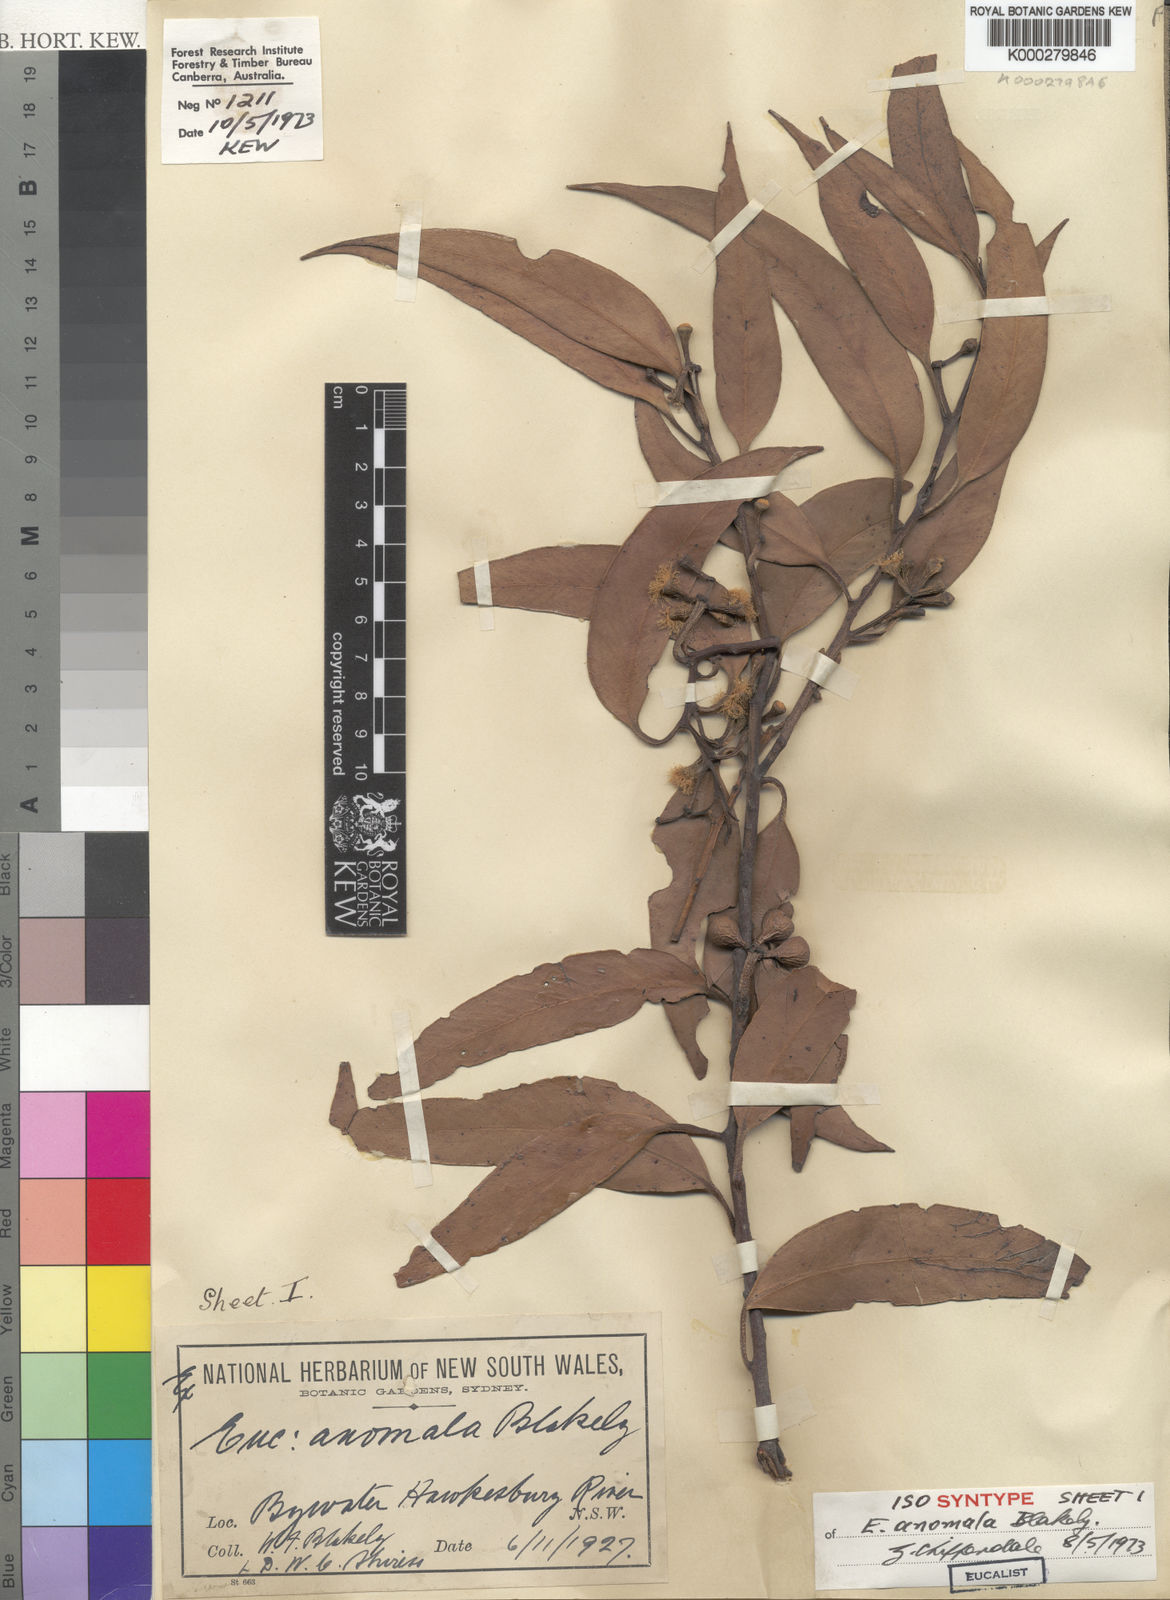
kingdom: Plantae
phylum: Tracheophyta
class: Magnoliopsida
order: Myrtales
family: Myrtaceae
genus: Eucalyptus
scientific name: Eucalyptus anomala
